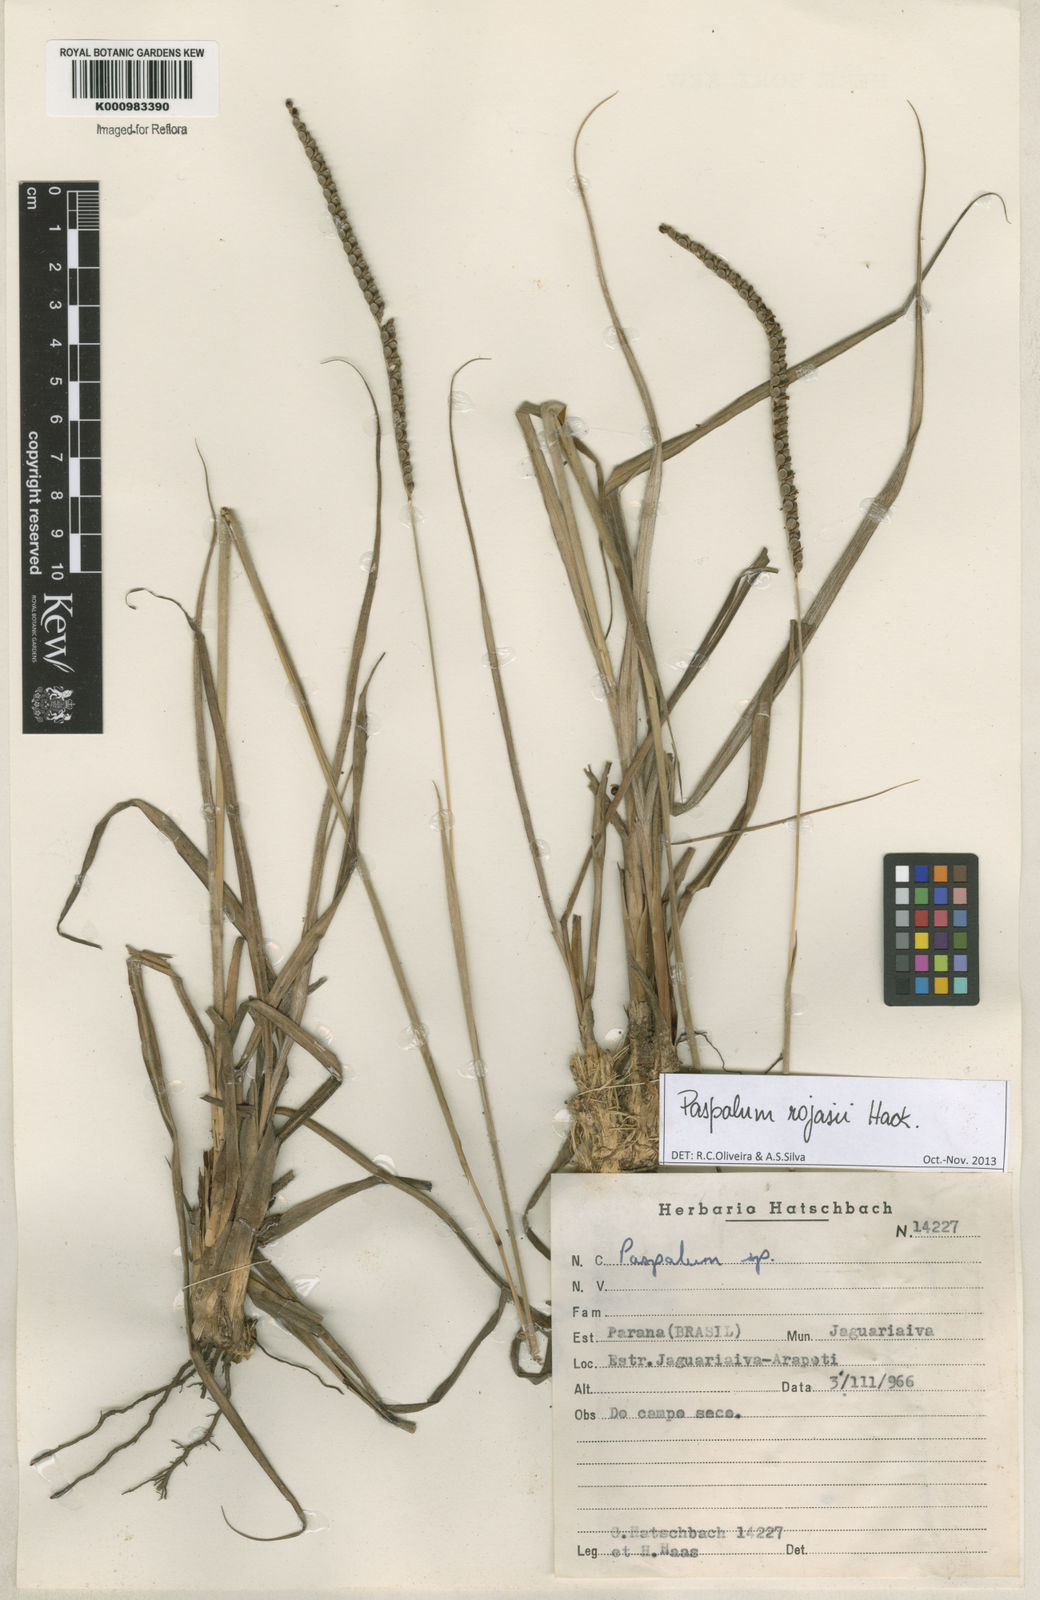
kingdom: Plantae
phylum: Tracheophyta
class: Liliopsida
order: Poales
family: Poaceae
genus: Paspalum
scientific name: Paspalum guenoarum
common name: Wintergreen paspalum
